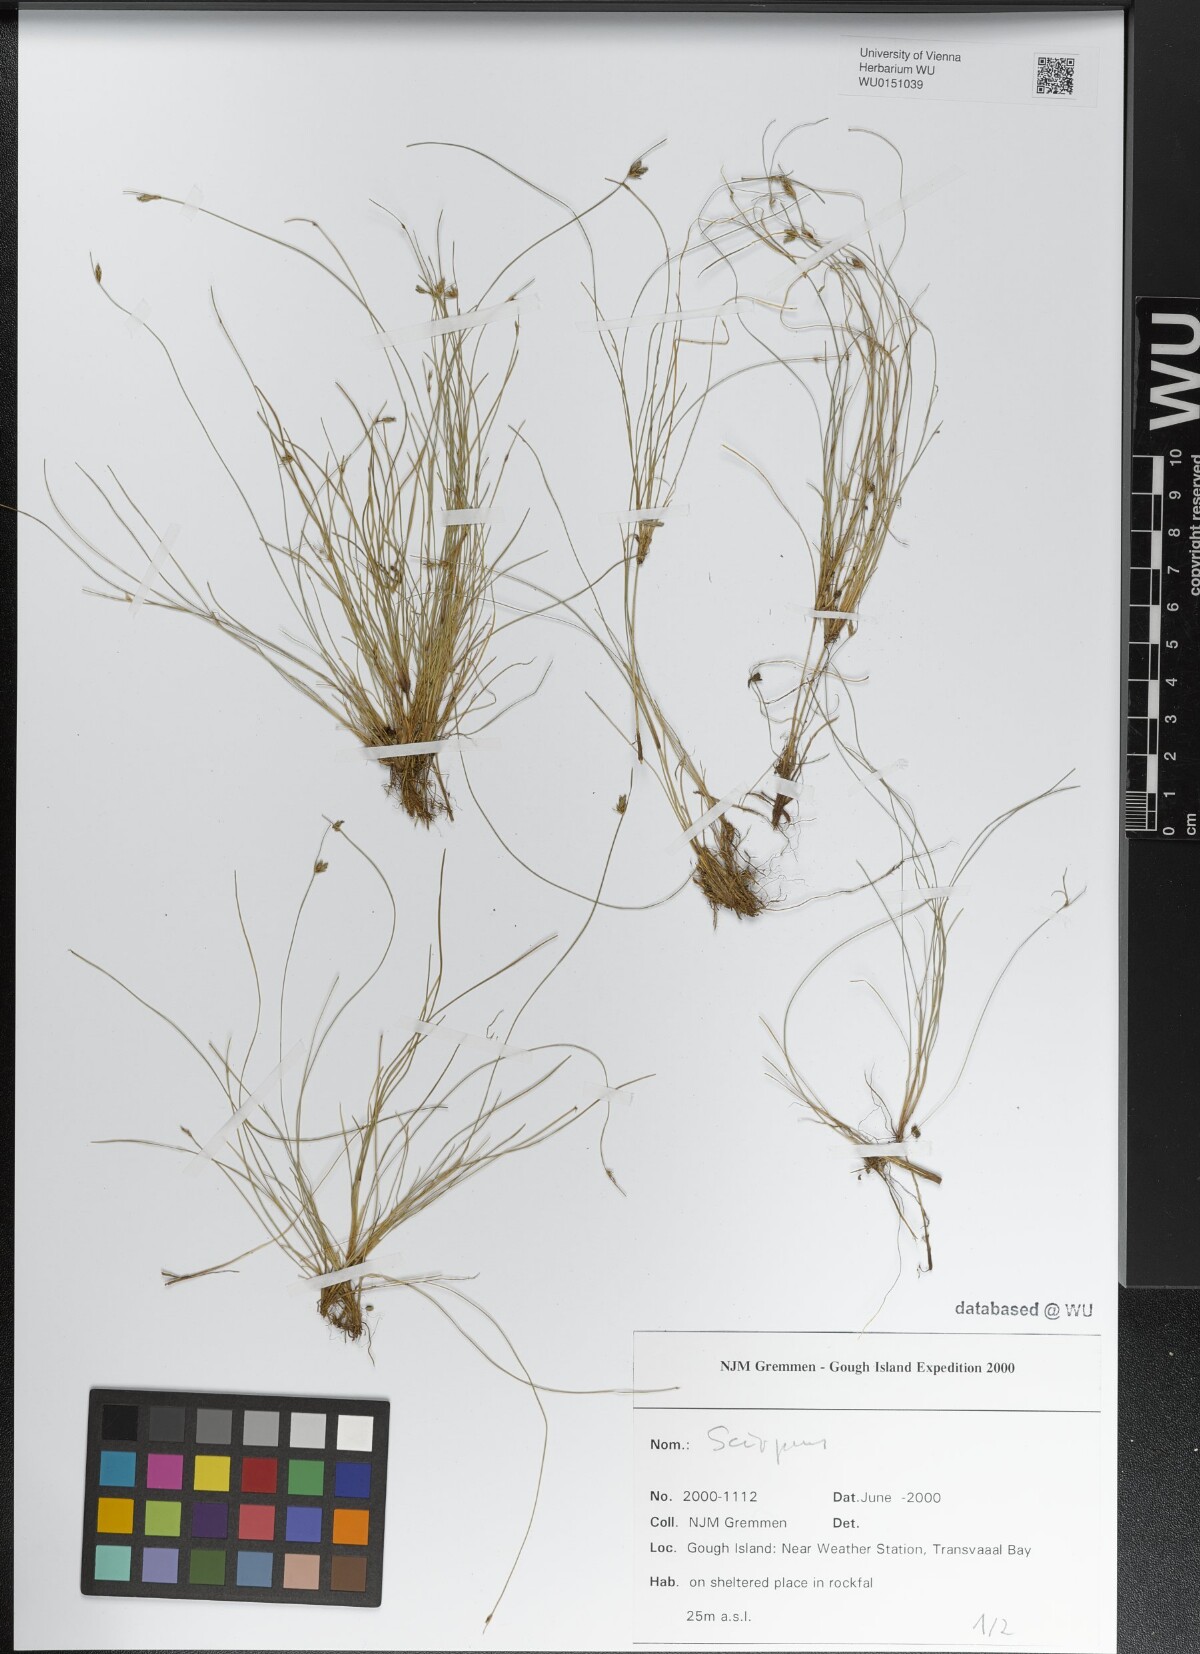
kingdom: Plantae
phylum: Tracheophyta
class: Liliopsida
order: Poales
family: Cyperaceae
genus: Scirpus
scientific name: Scirpus
